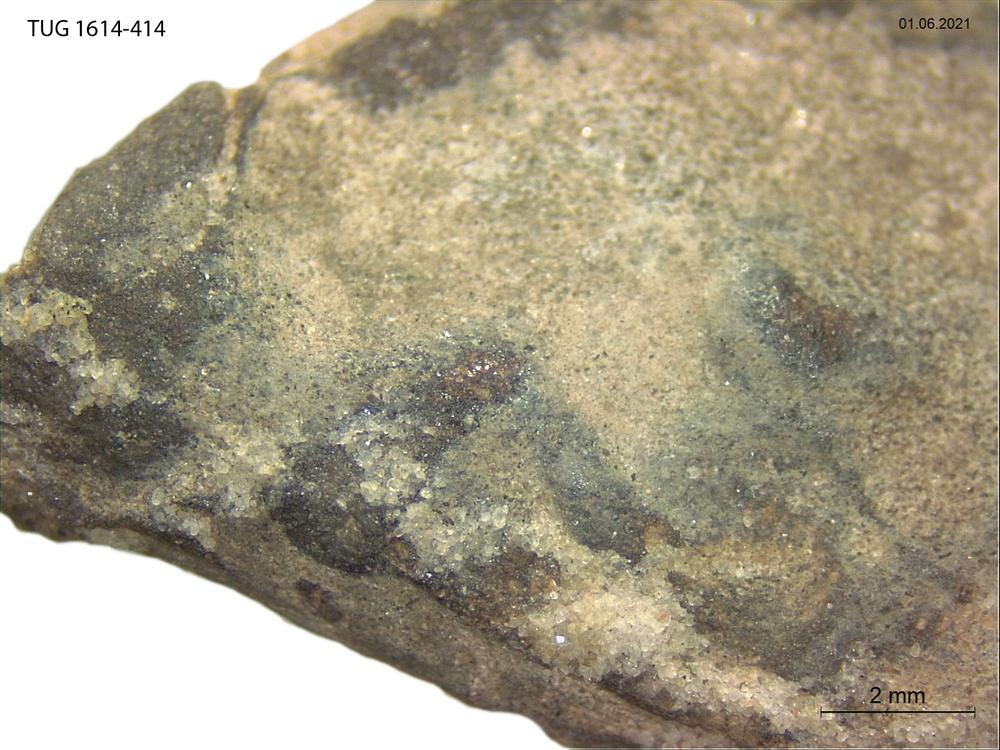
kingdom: Animalia
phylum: Mollusca
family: Scenellidae
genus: Scenella
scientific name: Scenella
